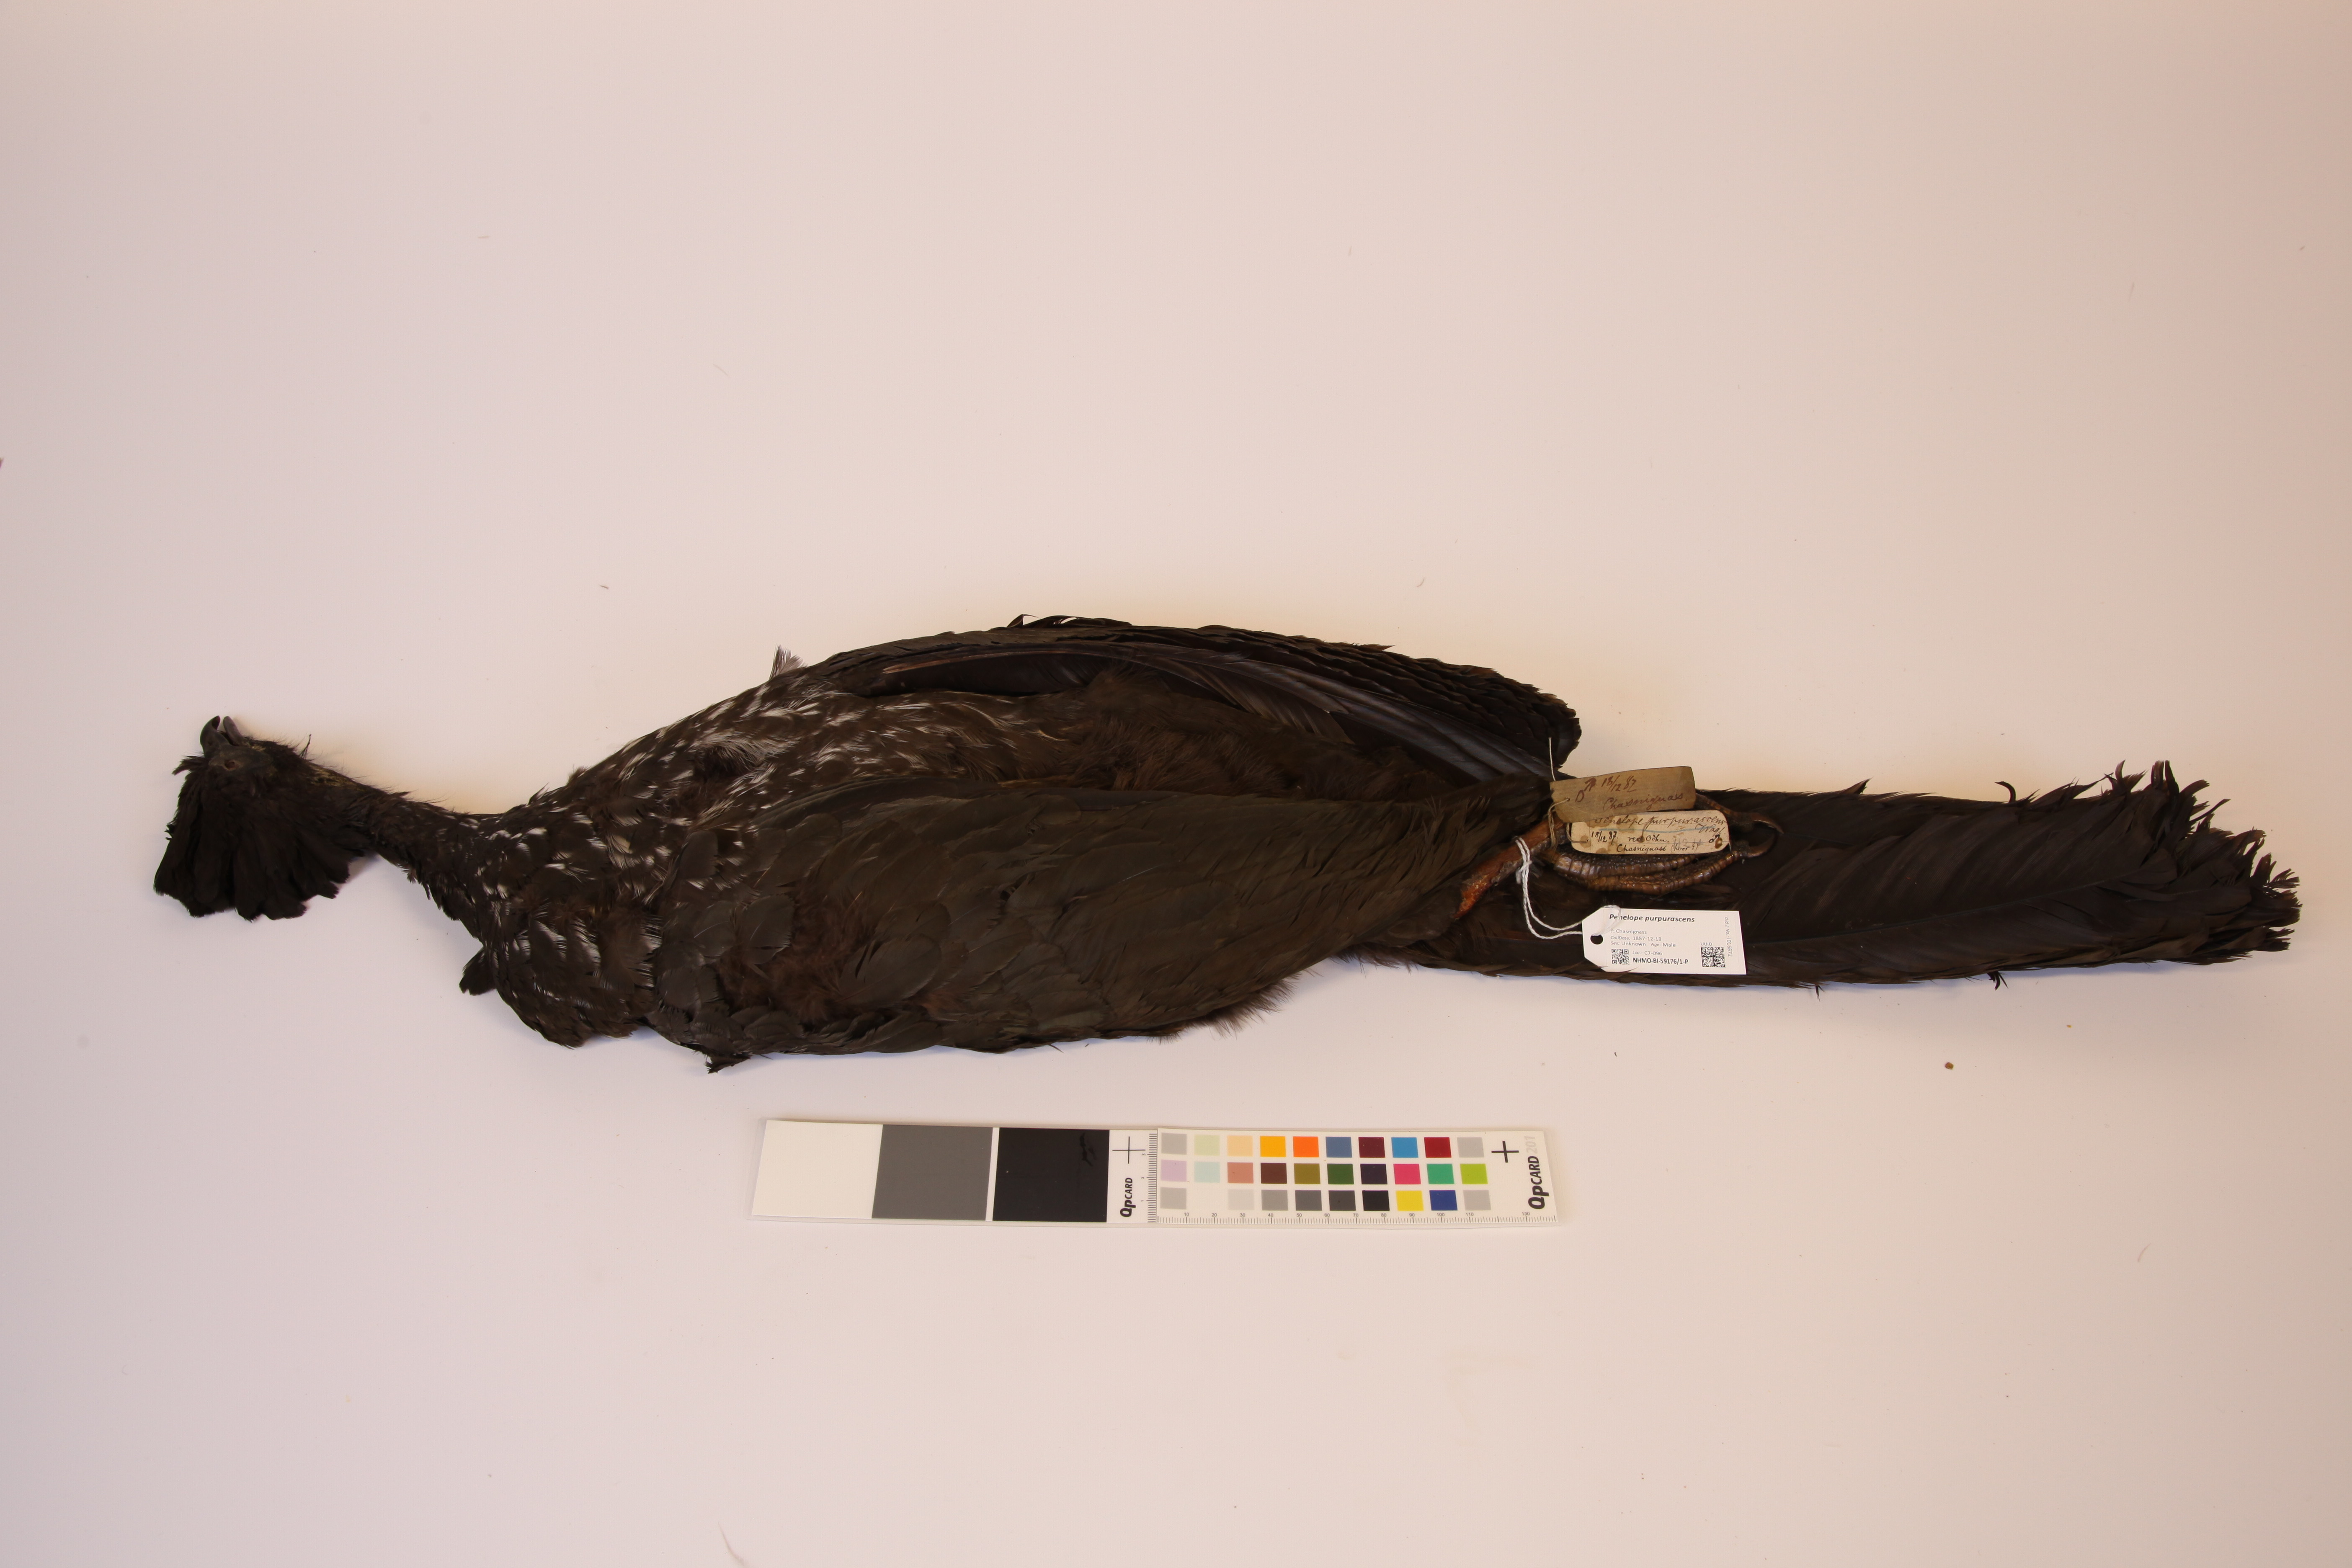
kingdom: Animalia
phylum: Chordata
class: Aves
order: Galliformes
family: Cracidae
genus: Penelope
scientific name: Penelope purpurascens
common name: Crested guan
